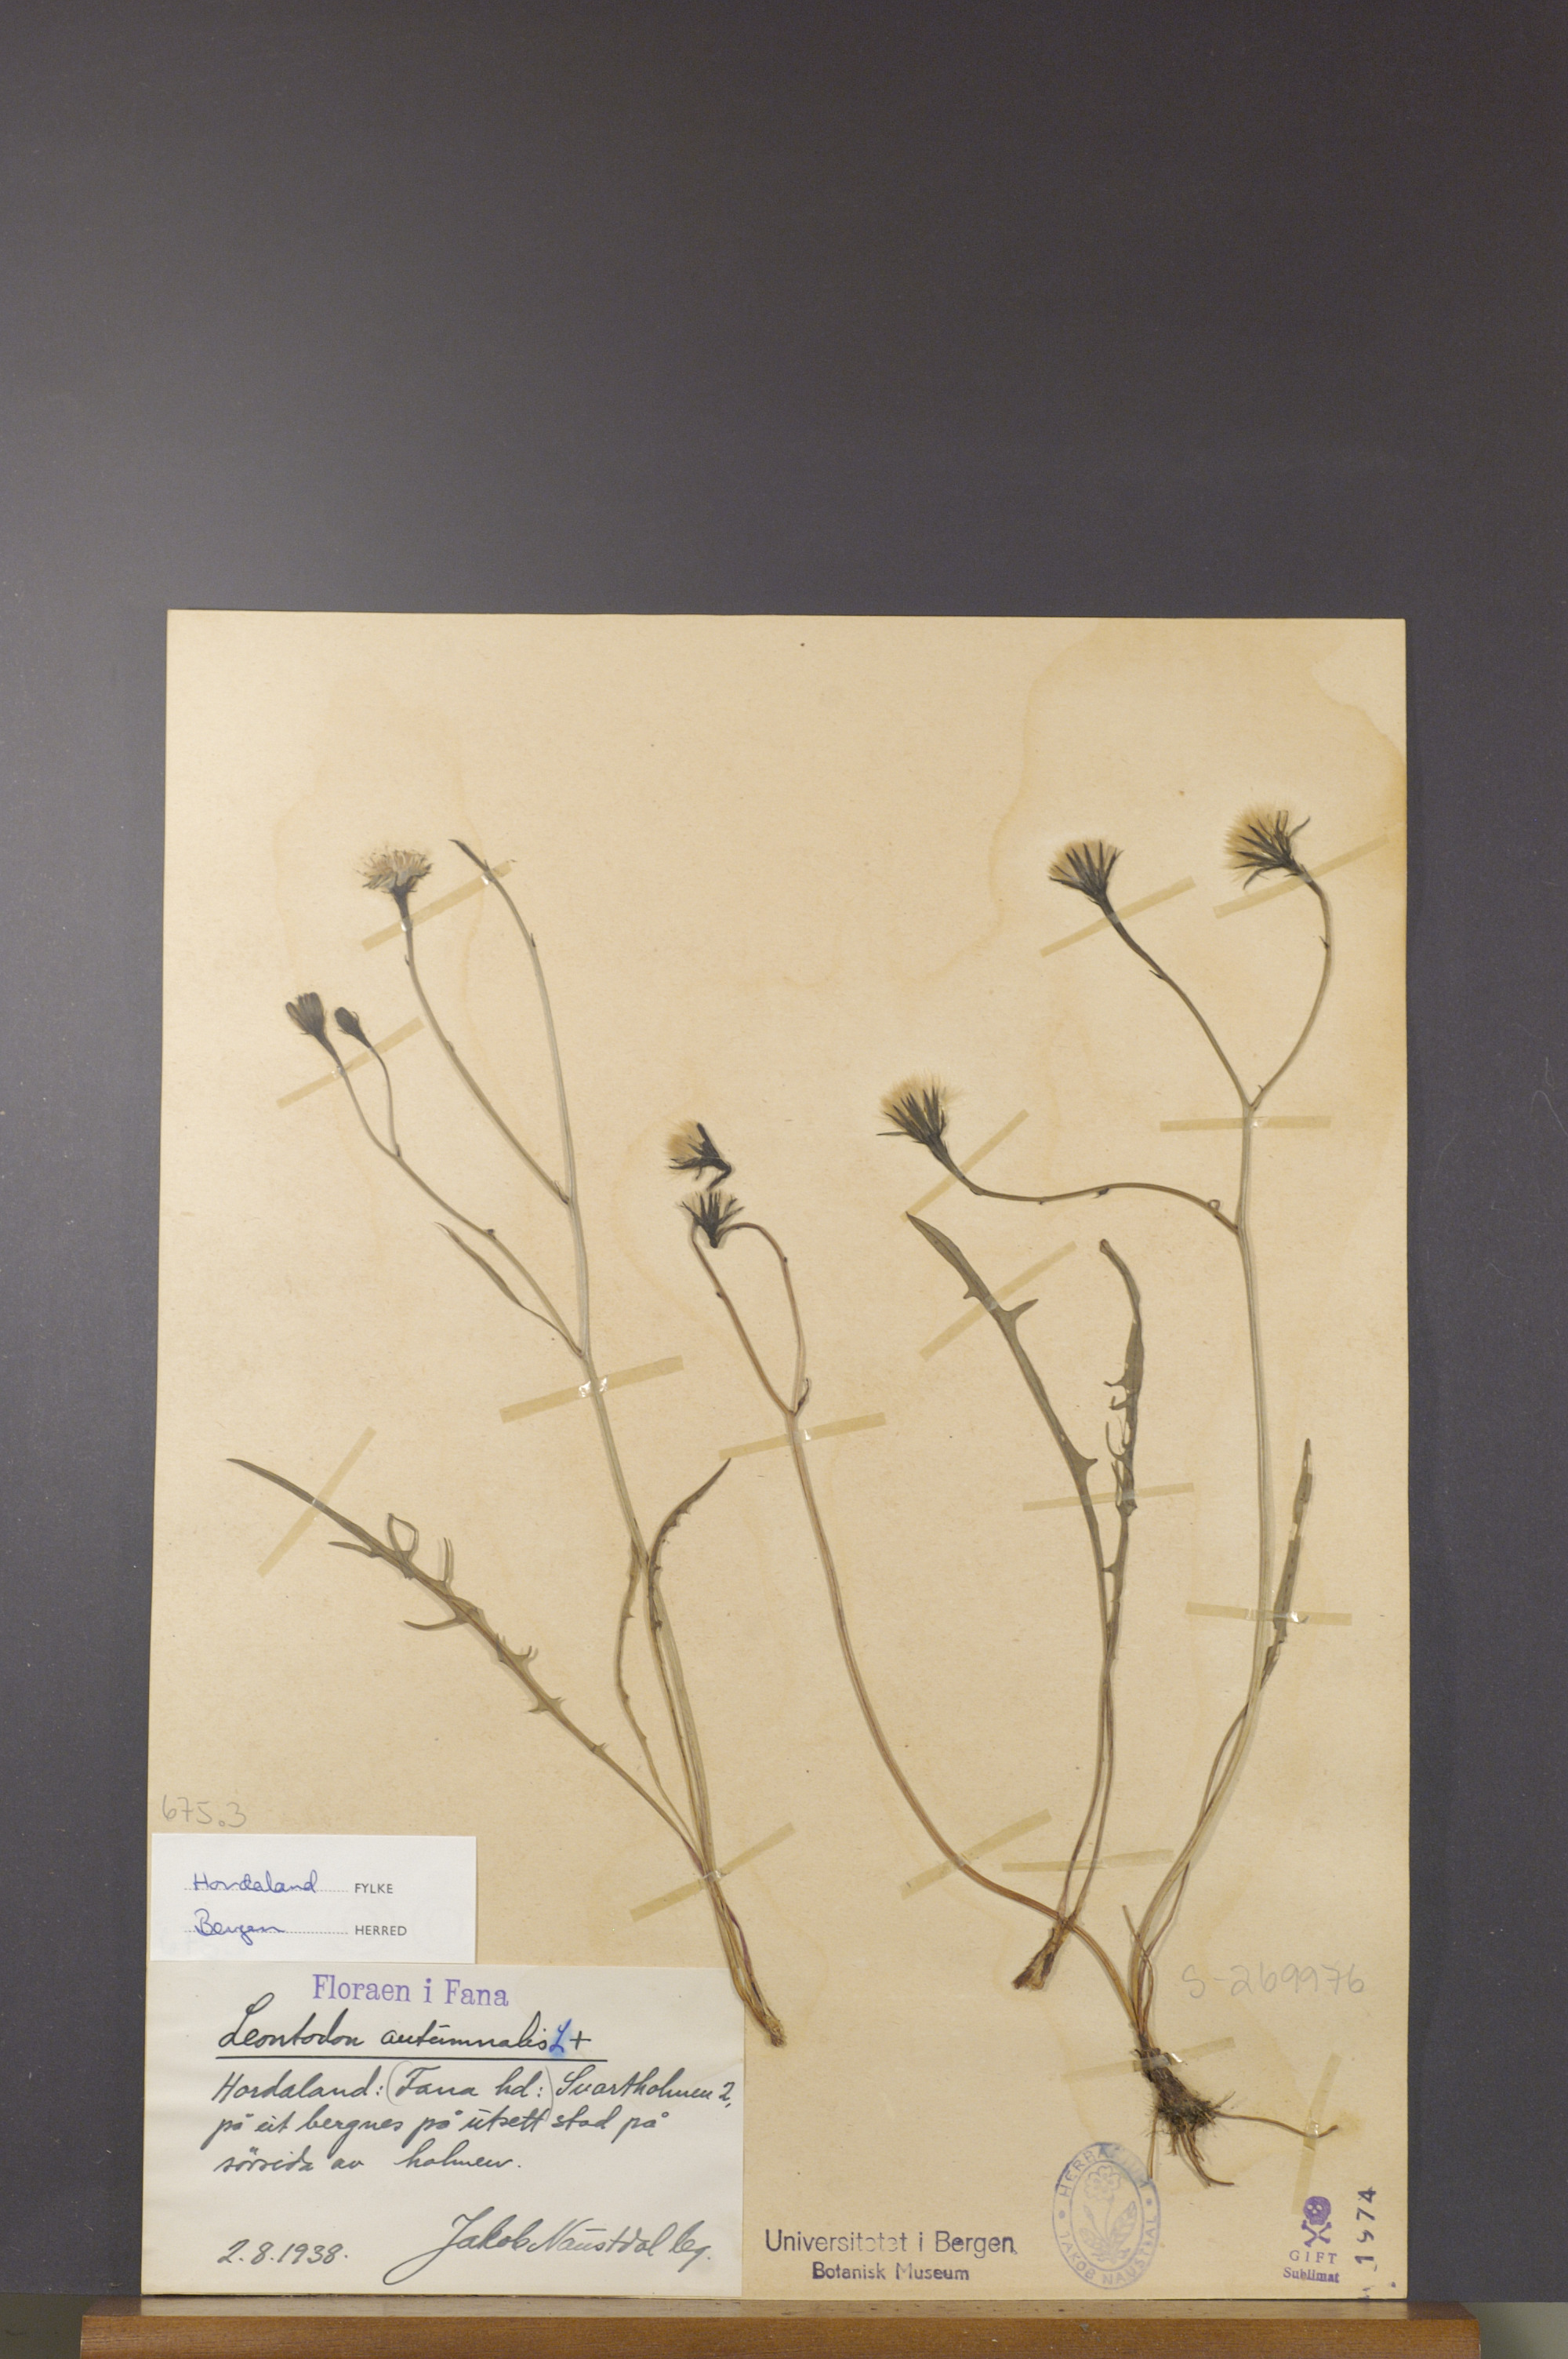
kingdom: Plantae
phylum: Tracheophyta
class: Magnoliopsida
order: Asterales
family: Asteraceae
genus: Scorzoneroides
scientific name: Scorzoneroides autumnalis
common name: Autumn hawkbit
